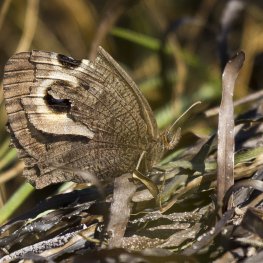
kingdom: Animalia
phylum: Arthropoda
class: Insecta
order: Lepidoptera
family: Nymphalidae
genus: Cercyonis
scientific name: Cercyonis pegala
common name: Common Wood-Nymph
